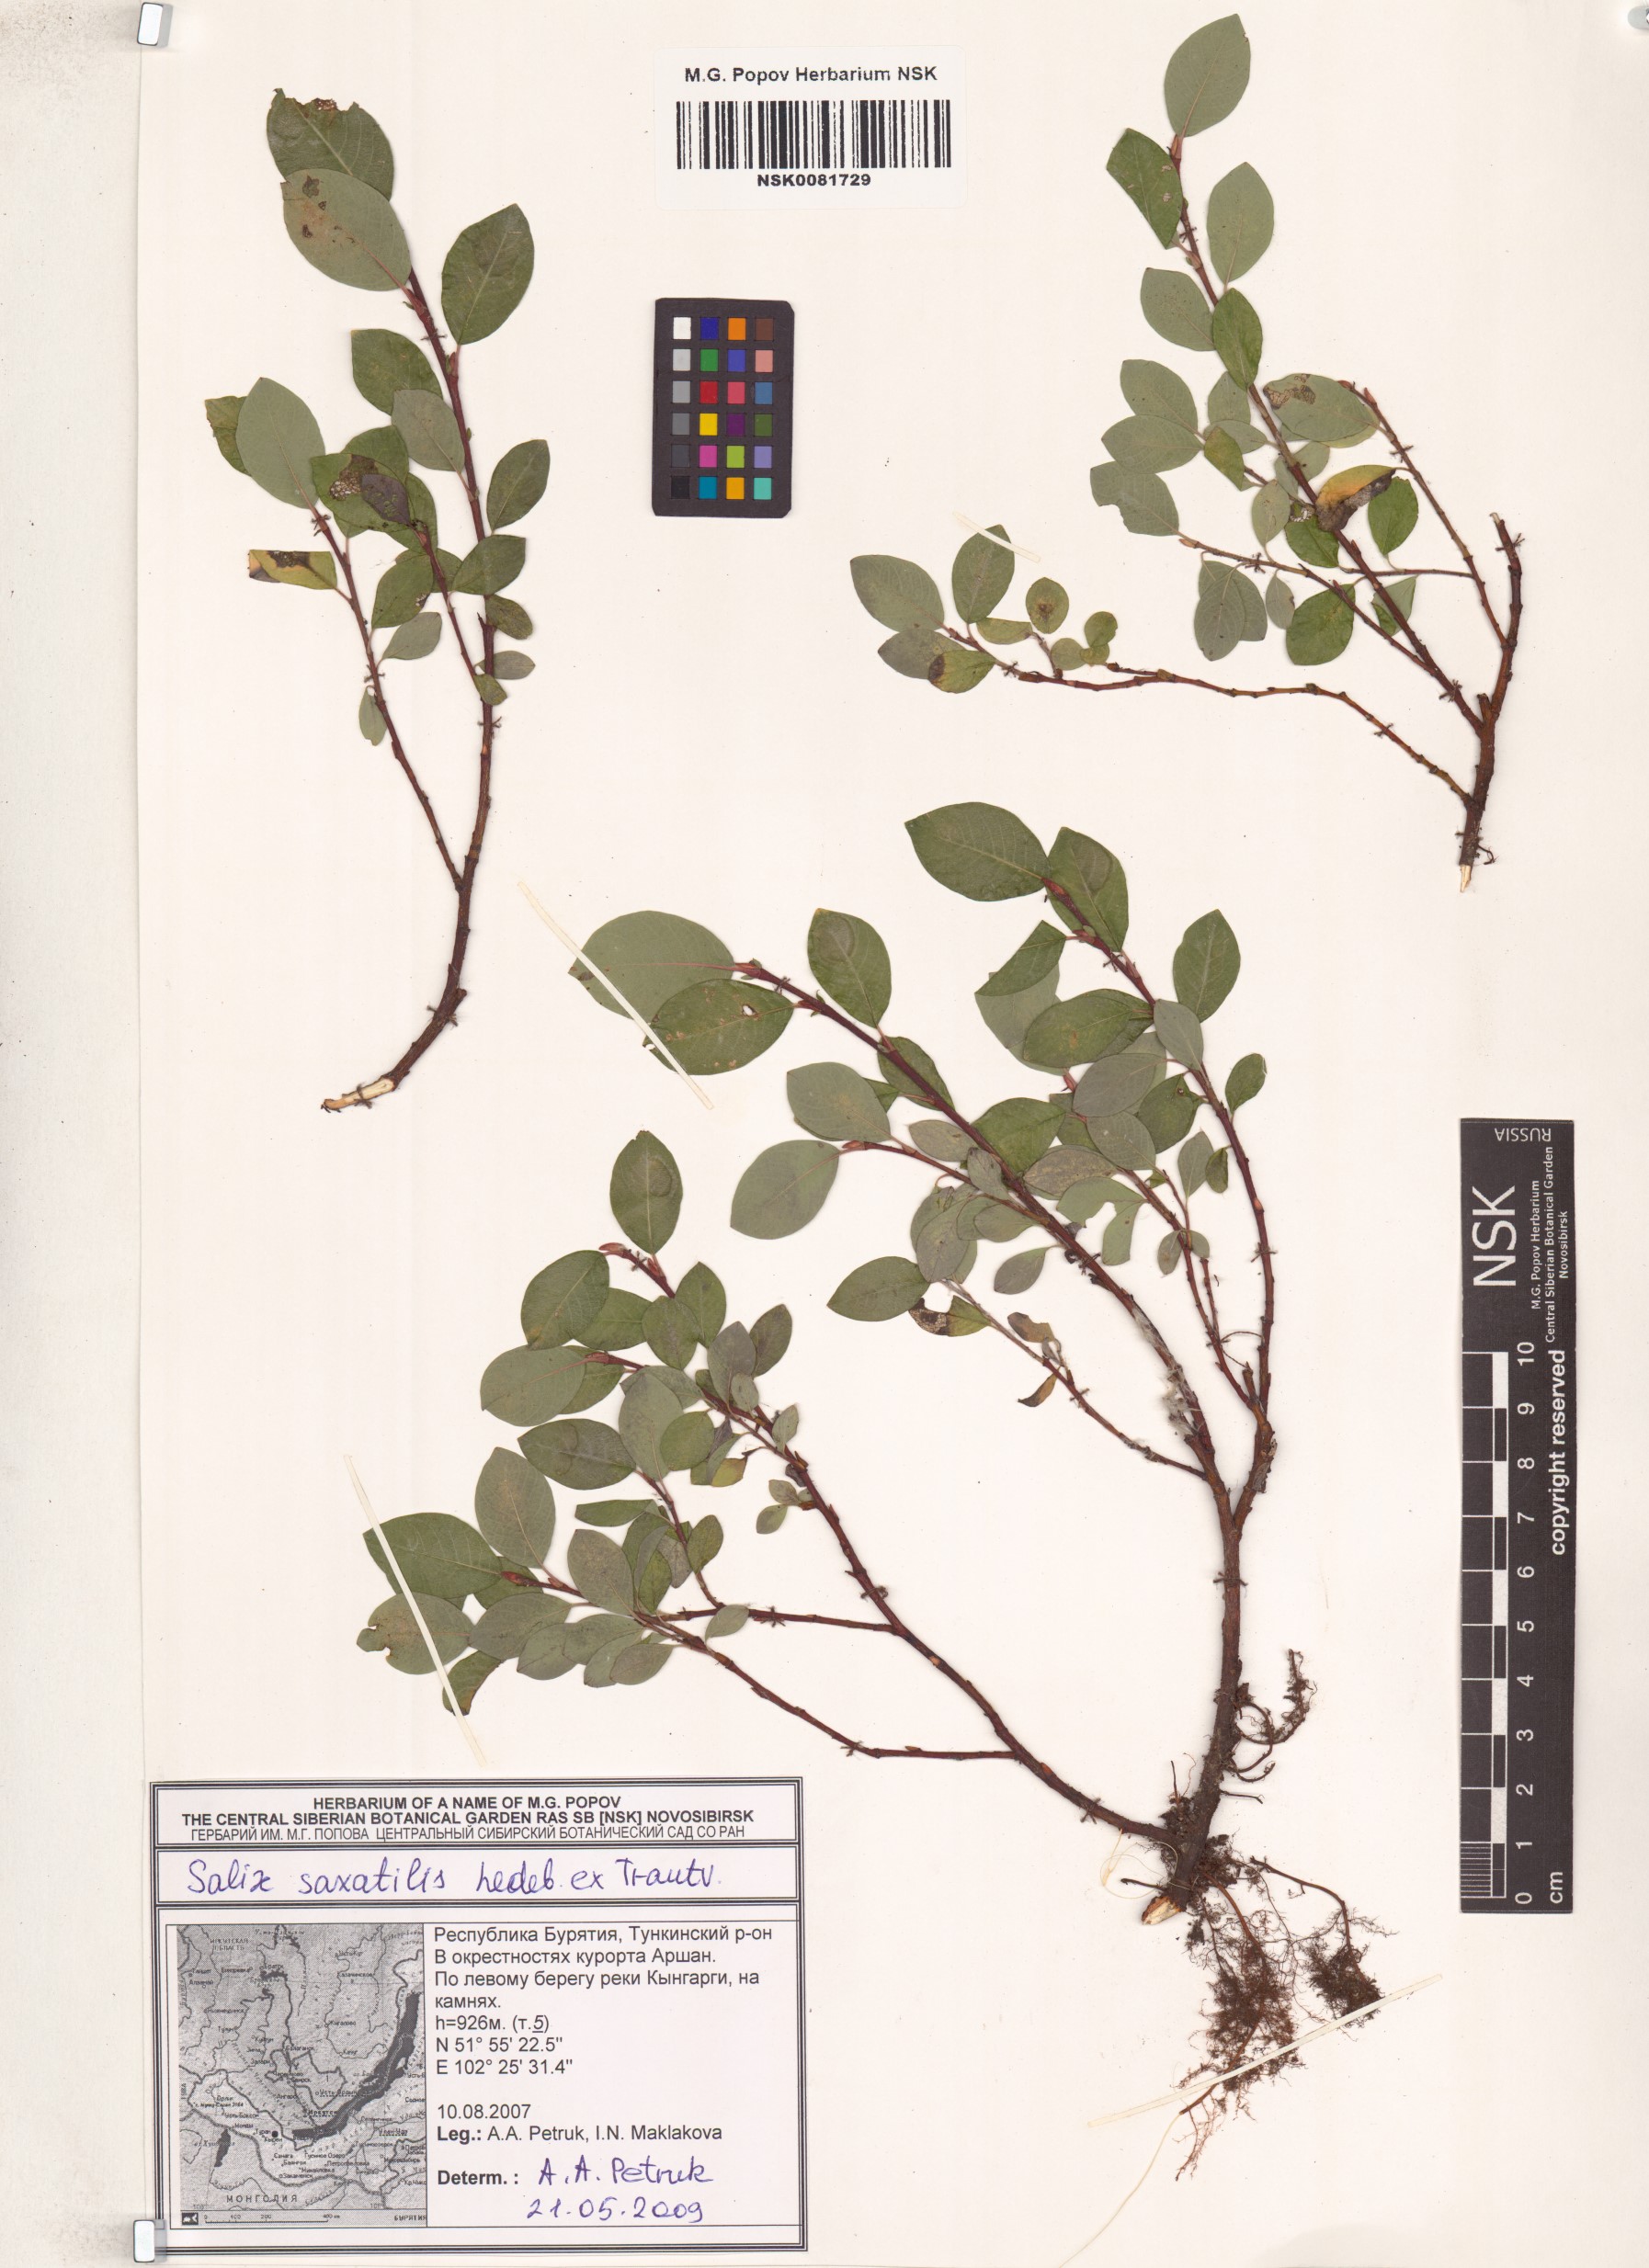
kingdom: Plantae
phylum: Tracheophyta
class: Magnoliopsida
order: Malpighiales
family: Salicaceae
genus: Salix
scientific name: Salix saxatilis
